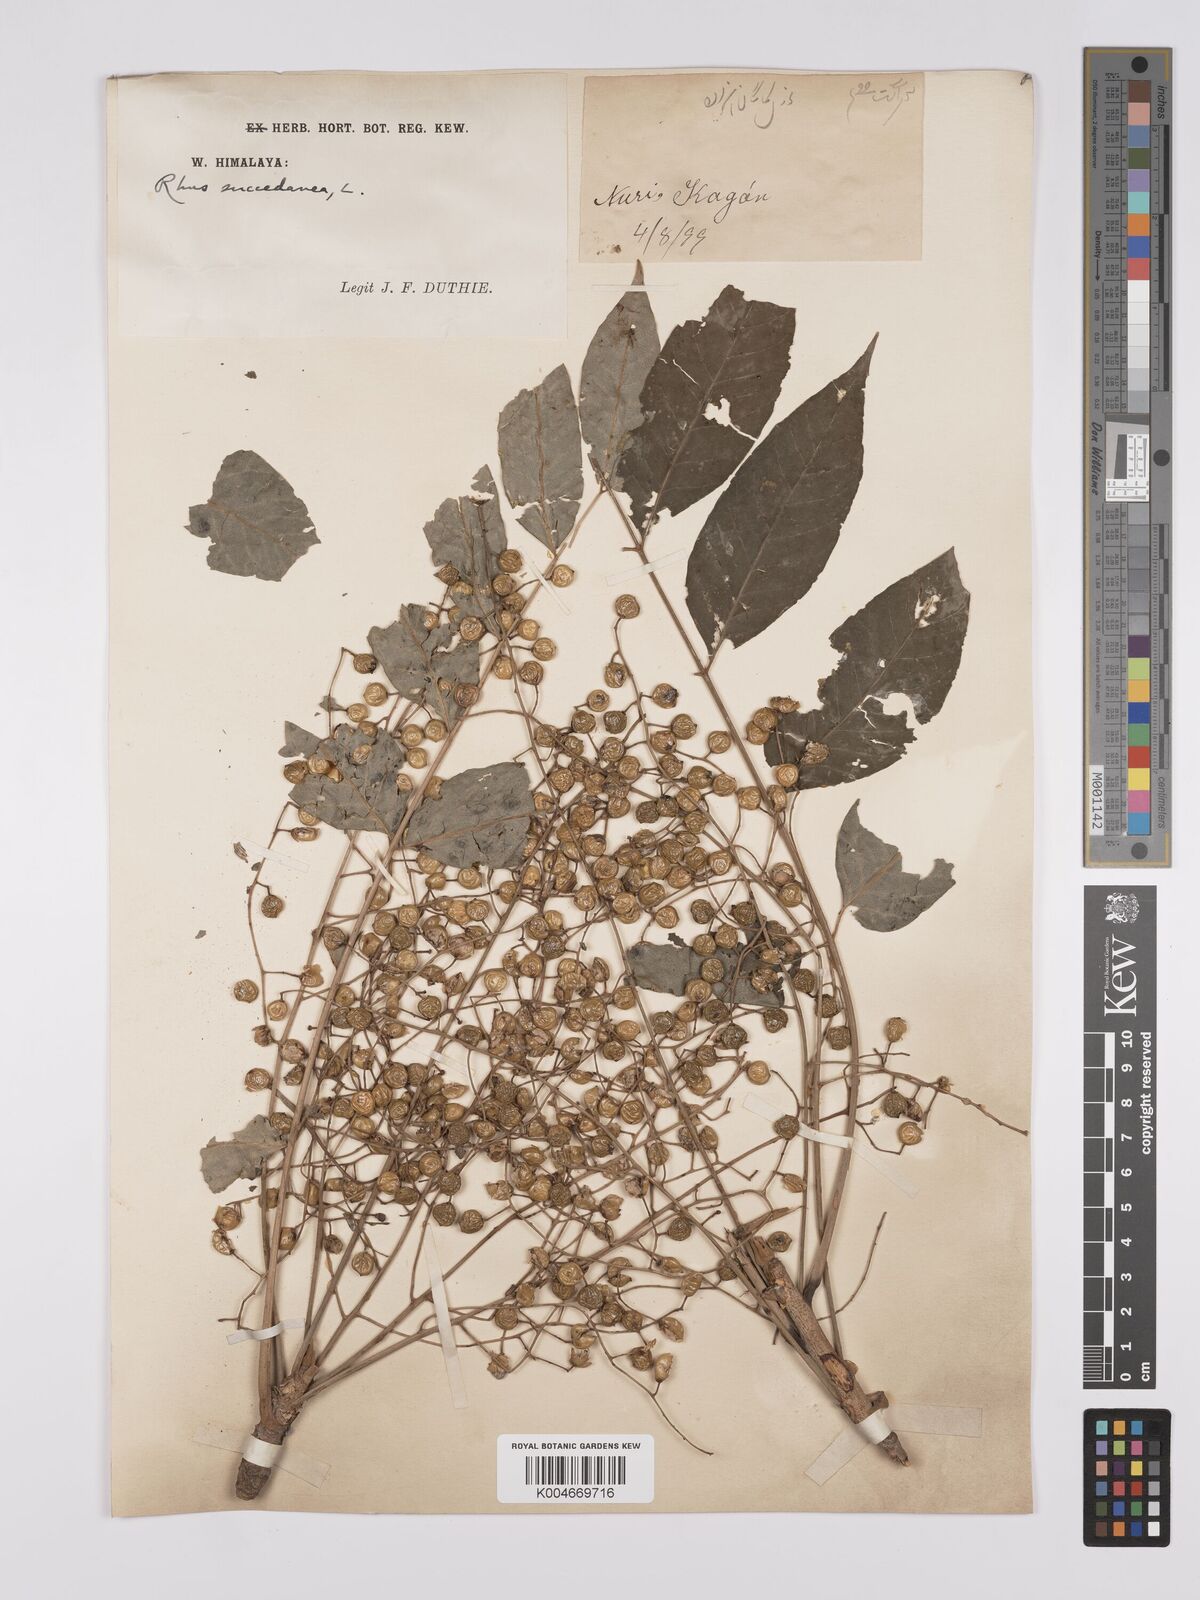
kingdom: Plantae
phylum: Tracheophyta
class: Magnoliopsida
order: Sapindales
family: Anacardiaceae
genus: Toxicodendron
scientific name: Toxicodendron succedaneum
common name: Wax tree
